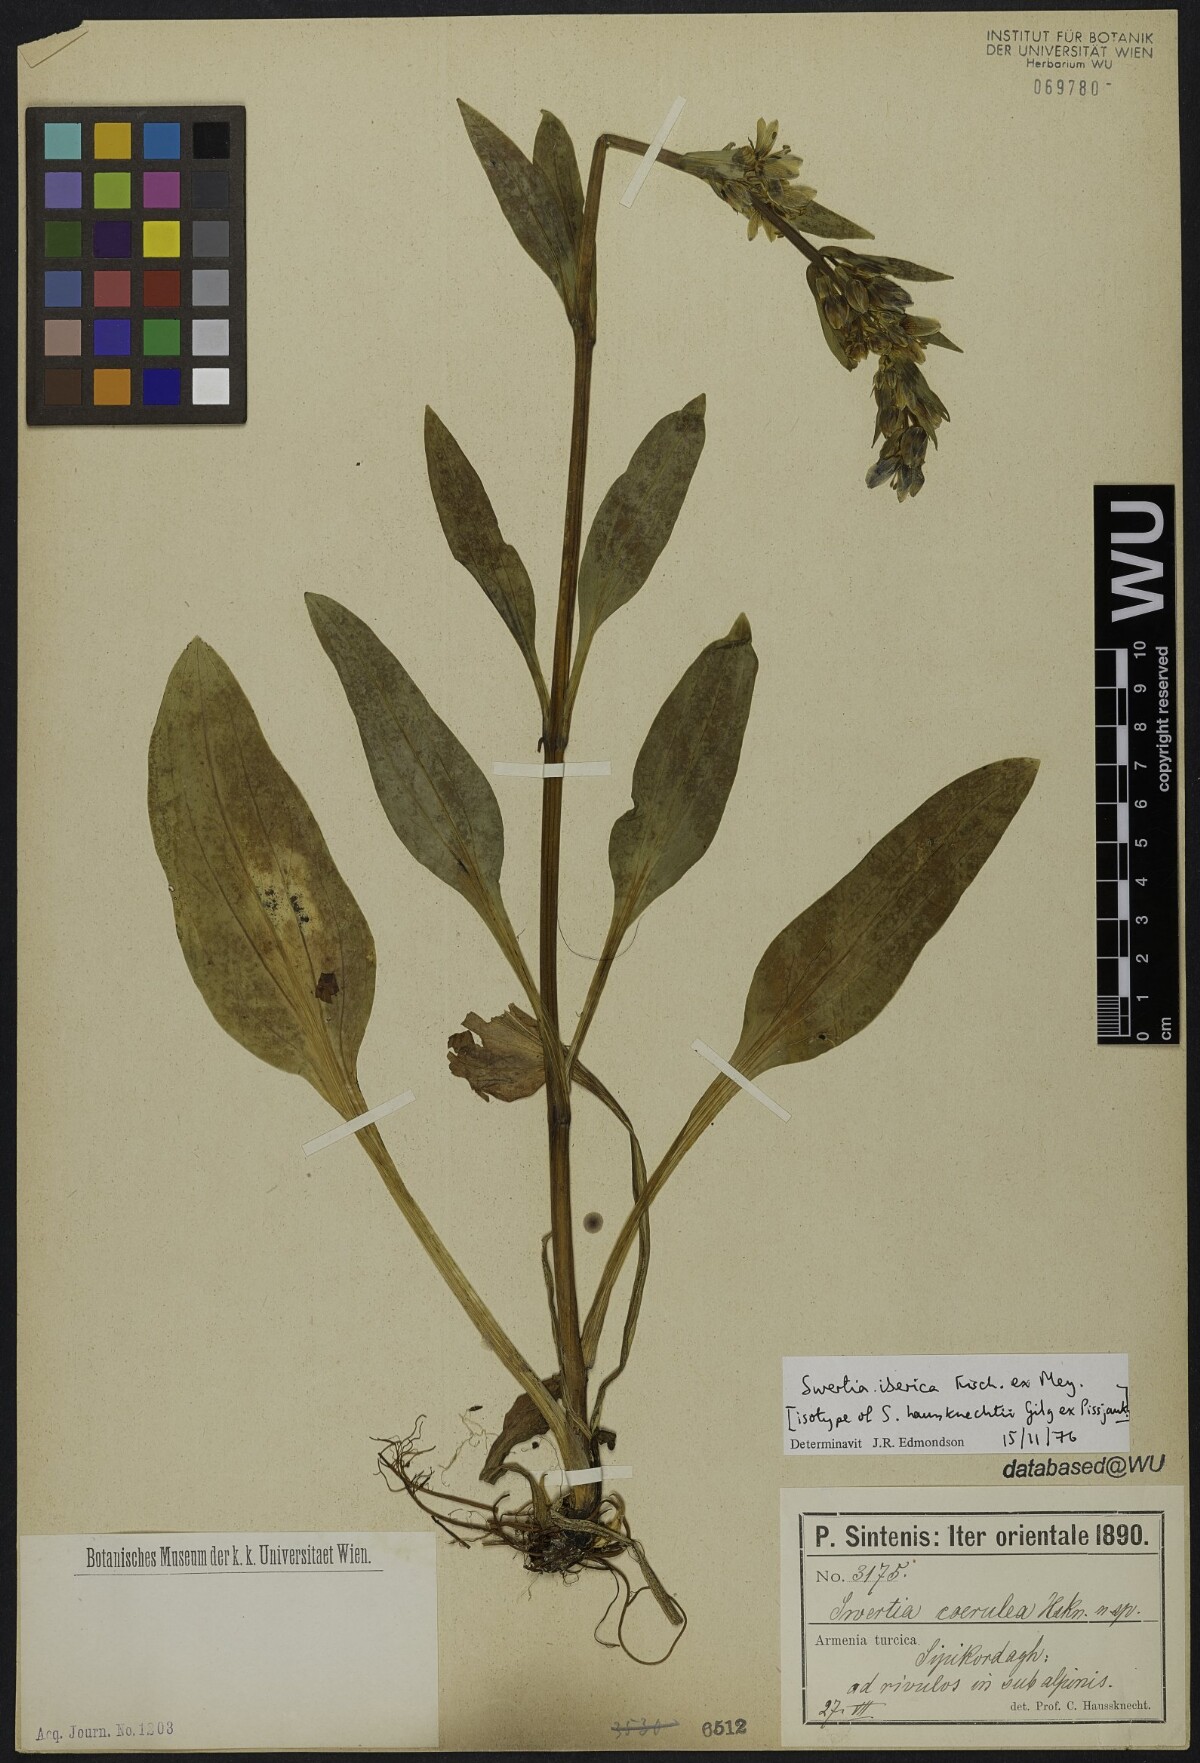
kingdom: Plantae
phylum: Tracheophyta
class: Magnoliopsida
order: Gentianales
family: Gentianaceae
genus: Swertia
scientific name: Swertia iberica
